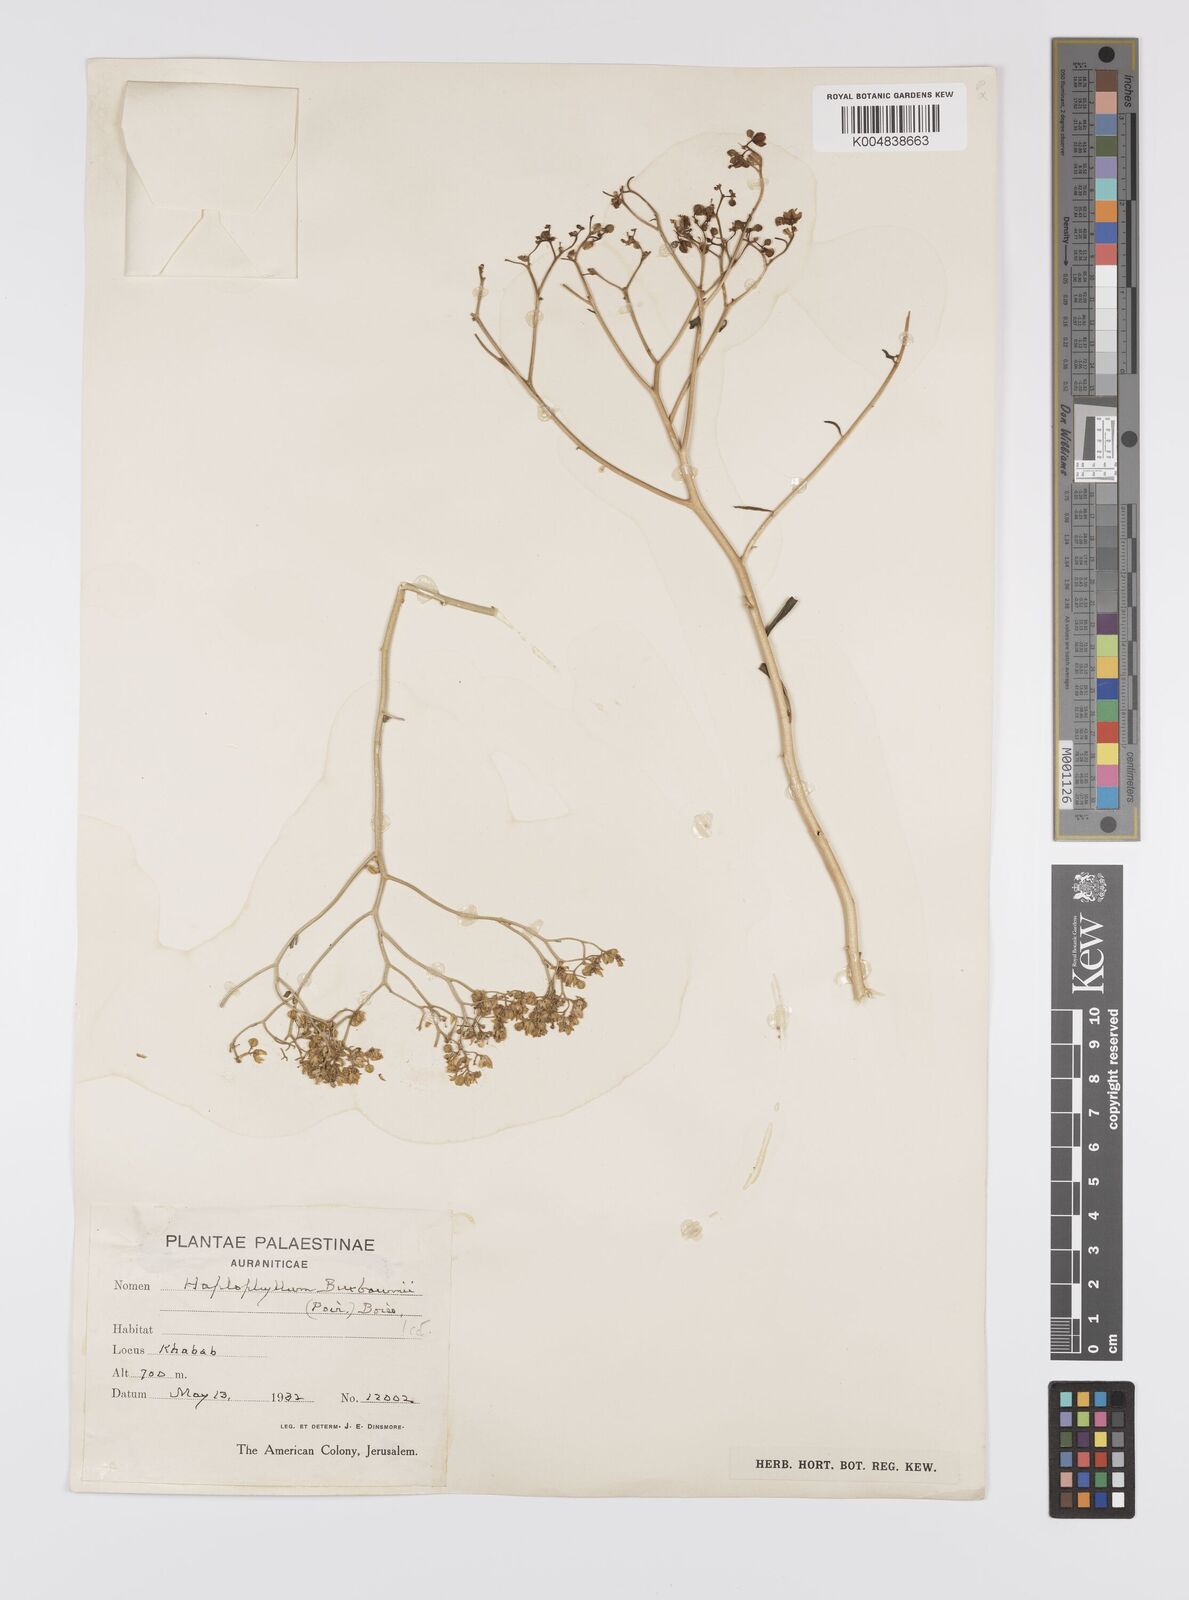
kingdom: Plantae
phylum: Tracheophyta
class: Magnoliopsida
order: Sapindales
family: Rutaceae
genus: Haplophyllum
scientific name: Haplophyllum
